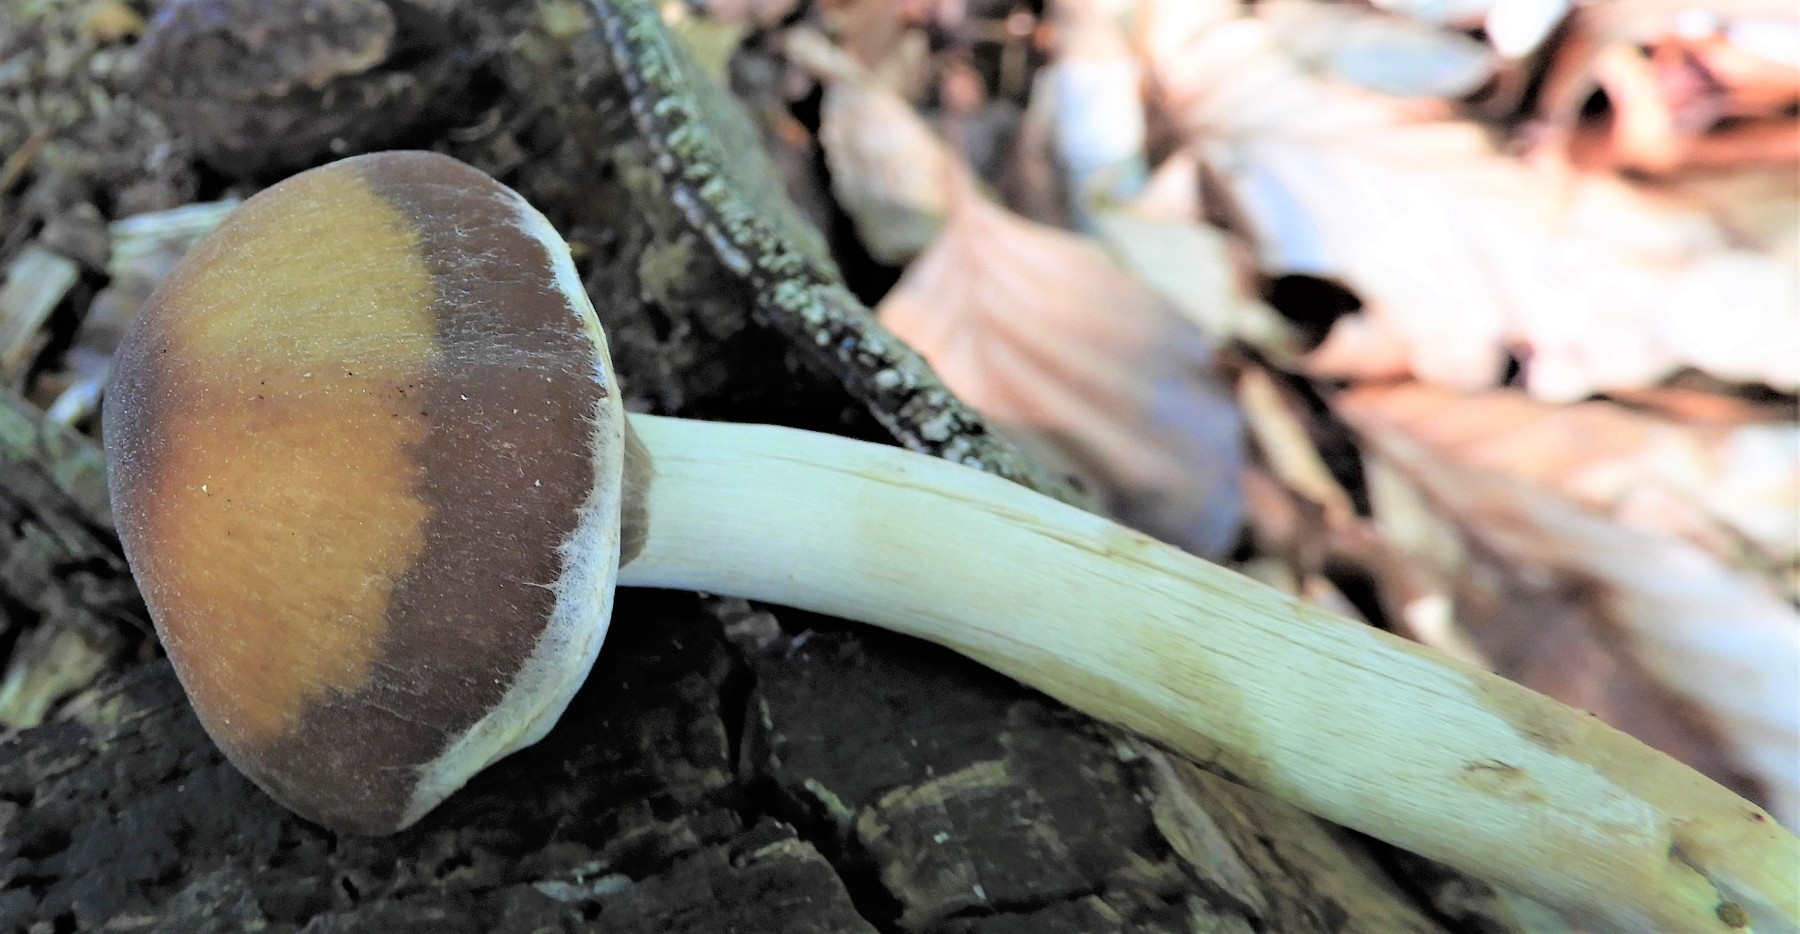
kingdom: Fungi
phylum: Basidiomycota
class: Agaricomycetes
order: Agaricales
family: Psathyrellaceae
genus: Psathyrella
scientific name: Psathyrella piluliformis
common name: lysstokket mørkhat
